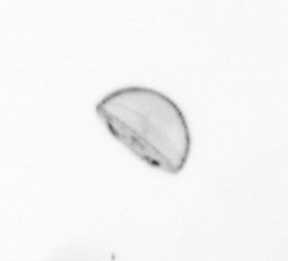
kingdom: Chromista
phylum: Ochrophyta
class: Bacillariophyceae
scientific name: Bacillariophyceae
